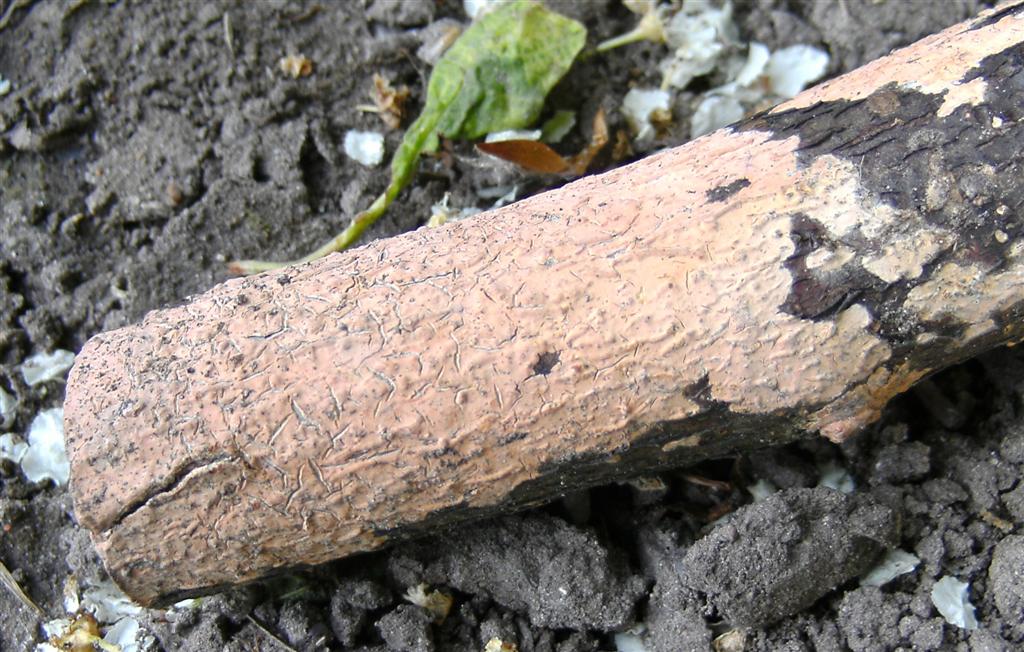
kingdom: Fungi
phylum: Basidiomycota
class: Agaricomycetes
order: Russulales
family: Peniophoraceae
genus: Peniophora
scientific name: Peniophora incarnata
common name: laksefarvet voksskind
